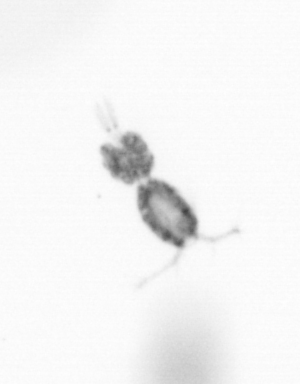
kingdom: Animalia
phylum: Arthropoda
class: Copepoda
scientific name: Copepoda
